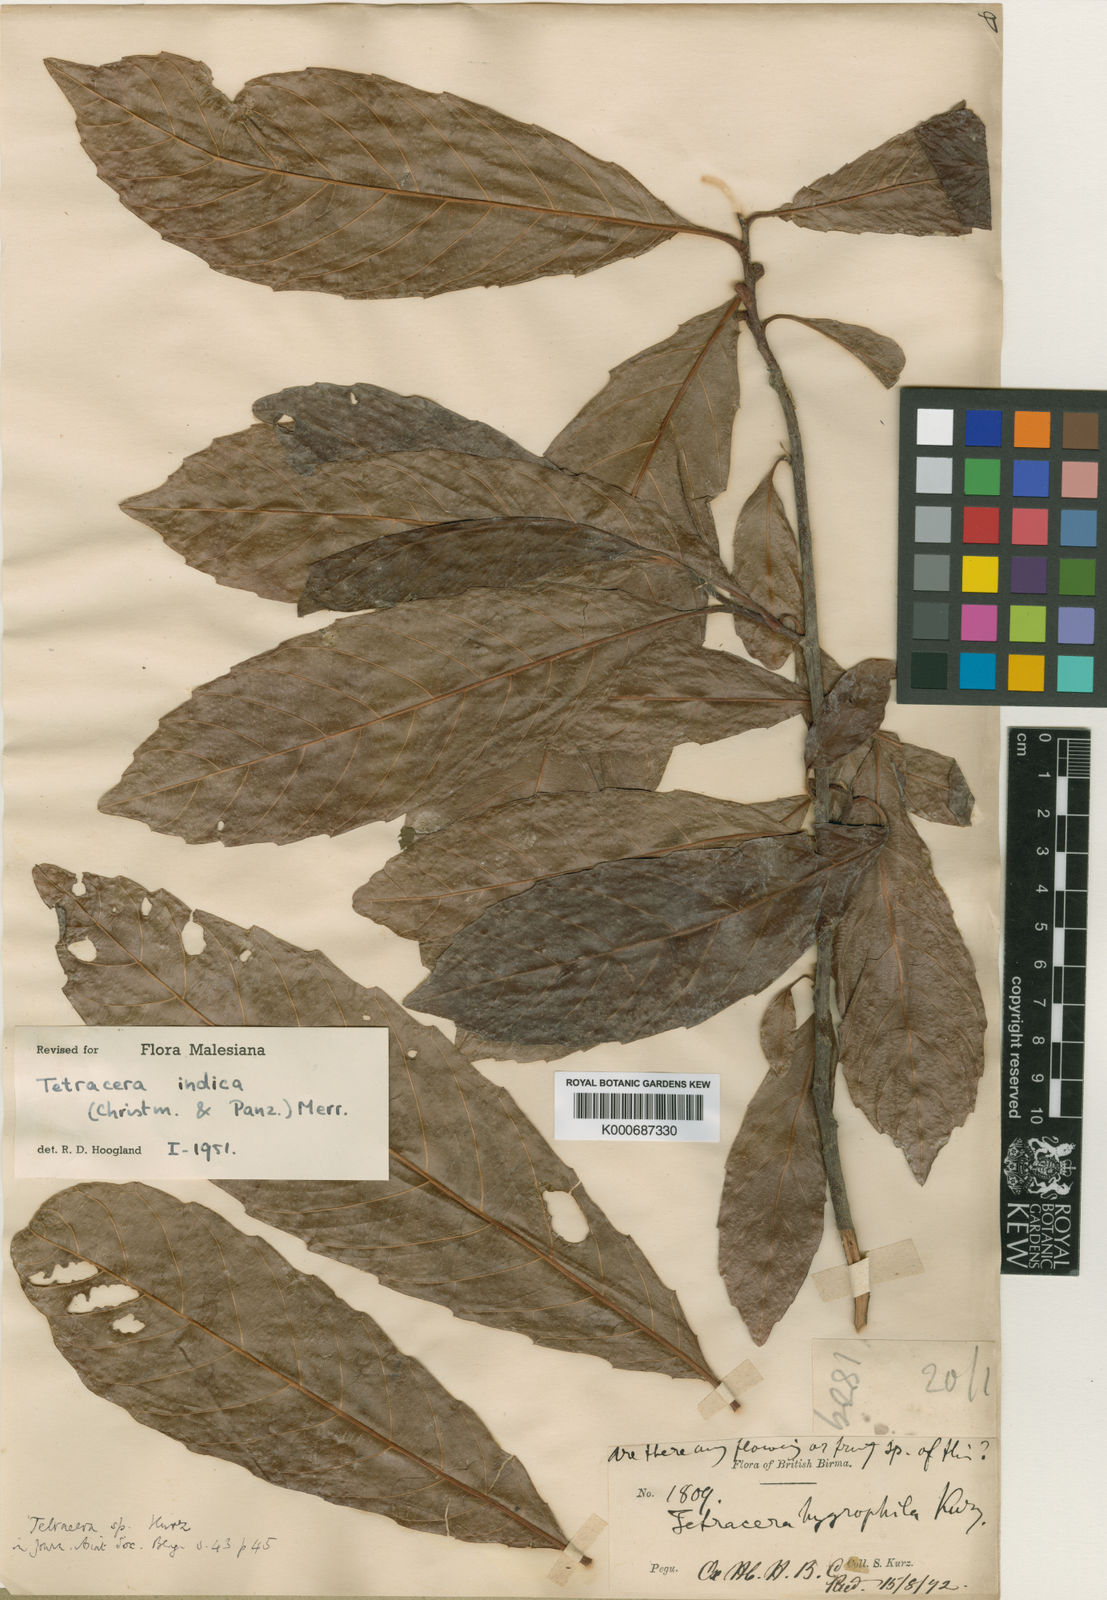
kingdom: Plantae
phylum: Tracheophyta
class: Magnoliopsida
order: Dilleniales
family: Dilleniaceae
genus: Tetracera
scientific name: Tetracera indica
